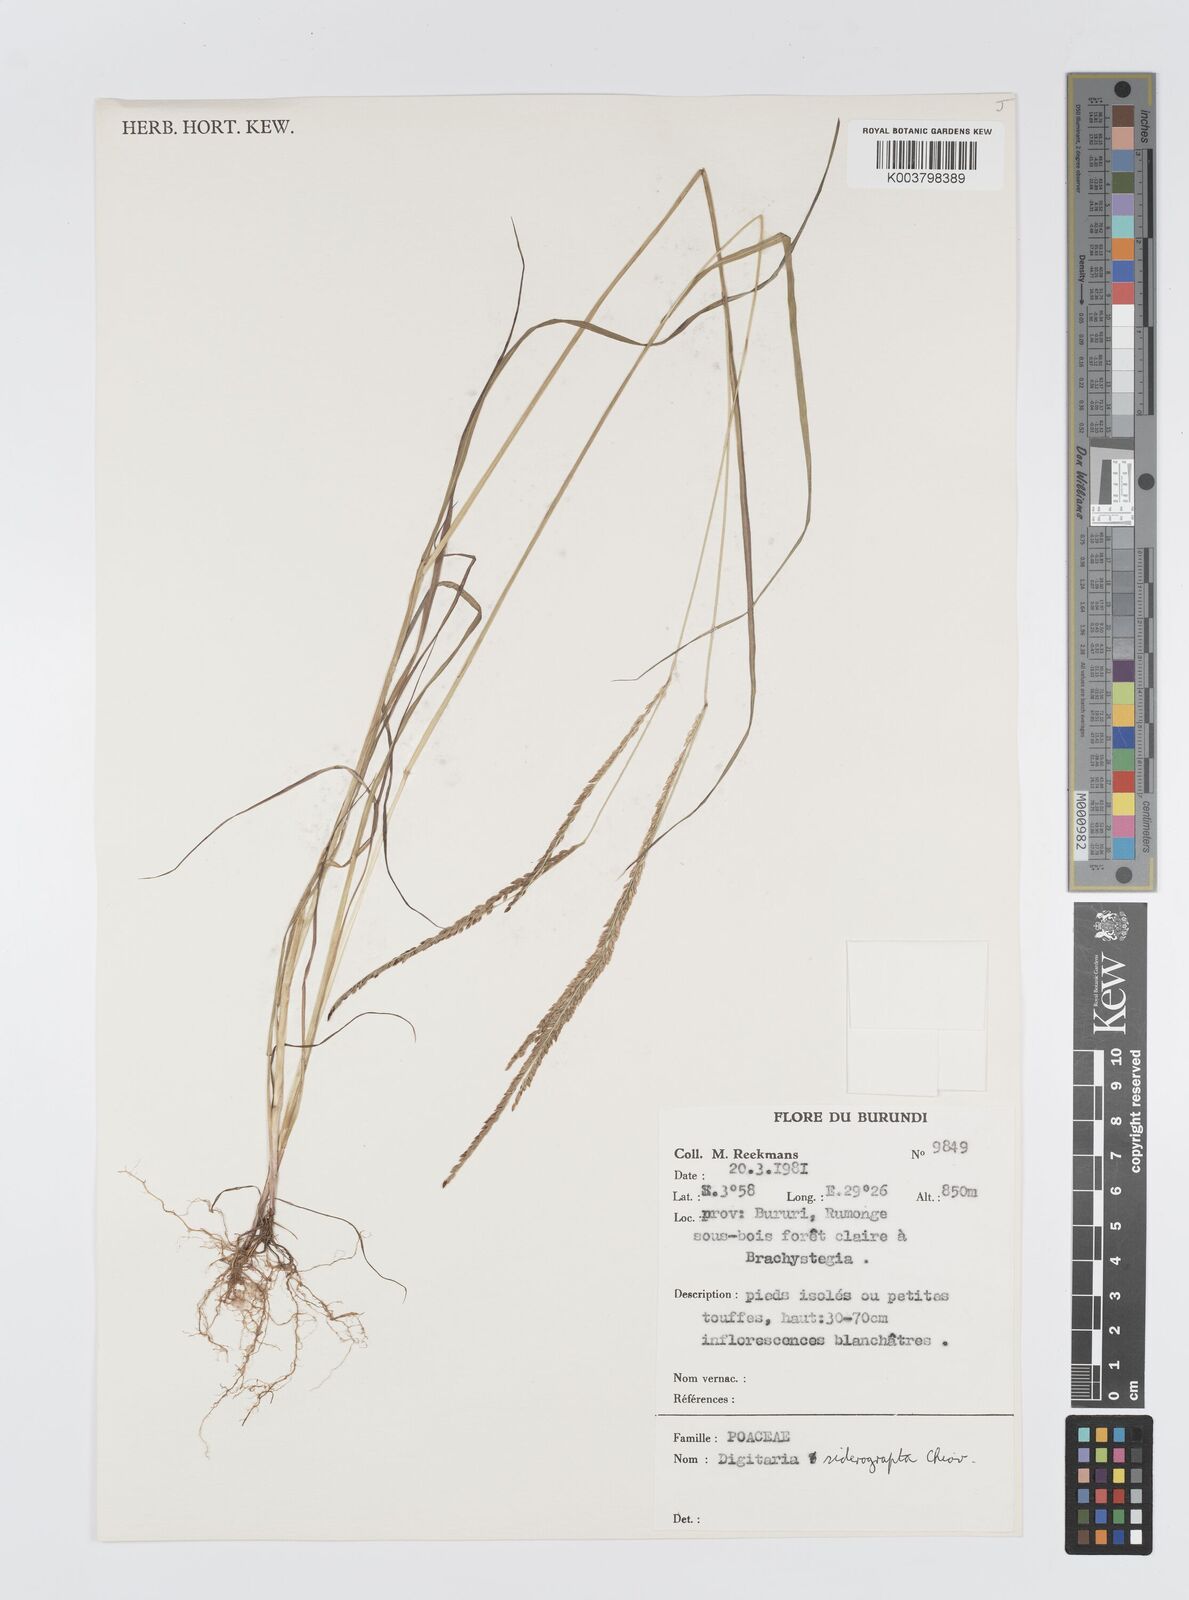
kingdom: Plantae
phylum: Tracheophyta
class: Liliopsida
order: Poales
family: Poaceae
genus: Digitaria
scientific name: Digitaria siderograpta
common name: Crab grass
